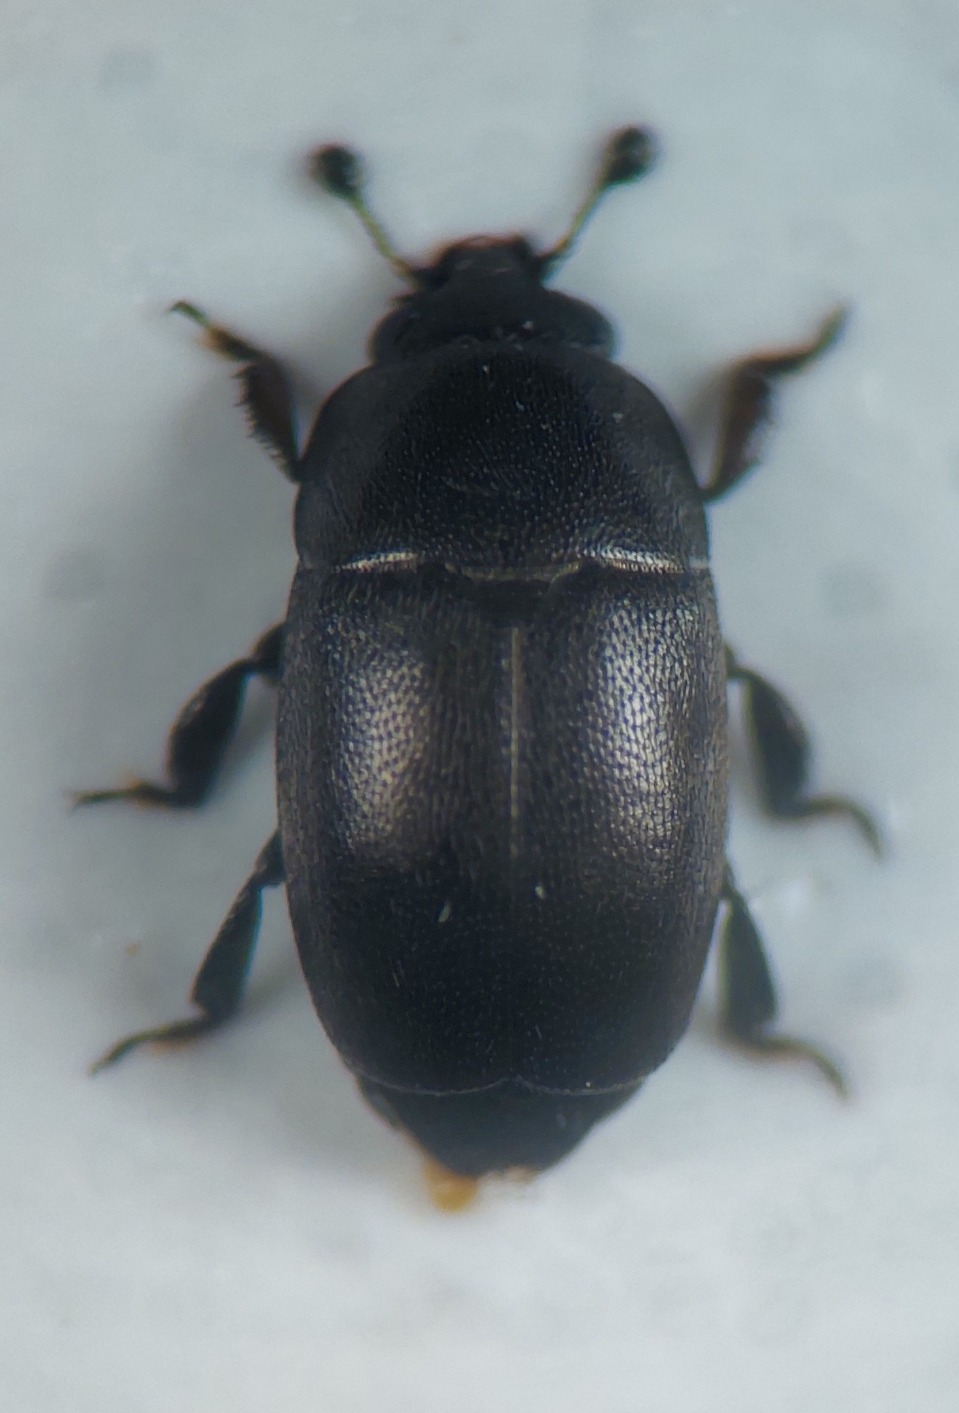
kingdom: Animalia
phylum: Arthropoda
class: Insecta
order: Coleoptera
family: Nitidulidae
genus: Meligethes
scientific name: Meligethes exilis
